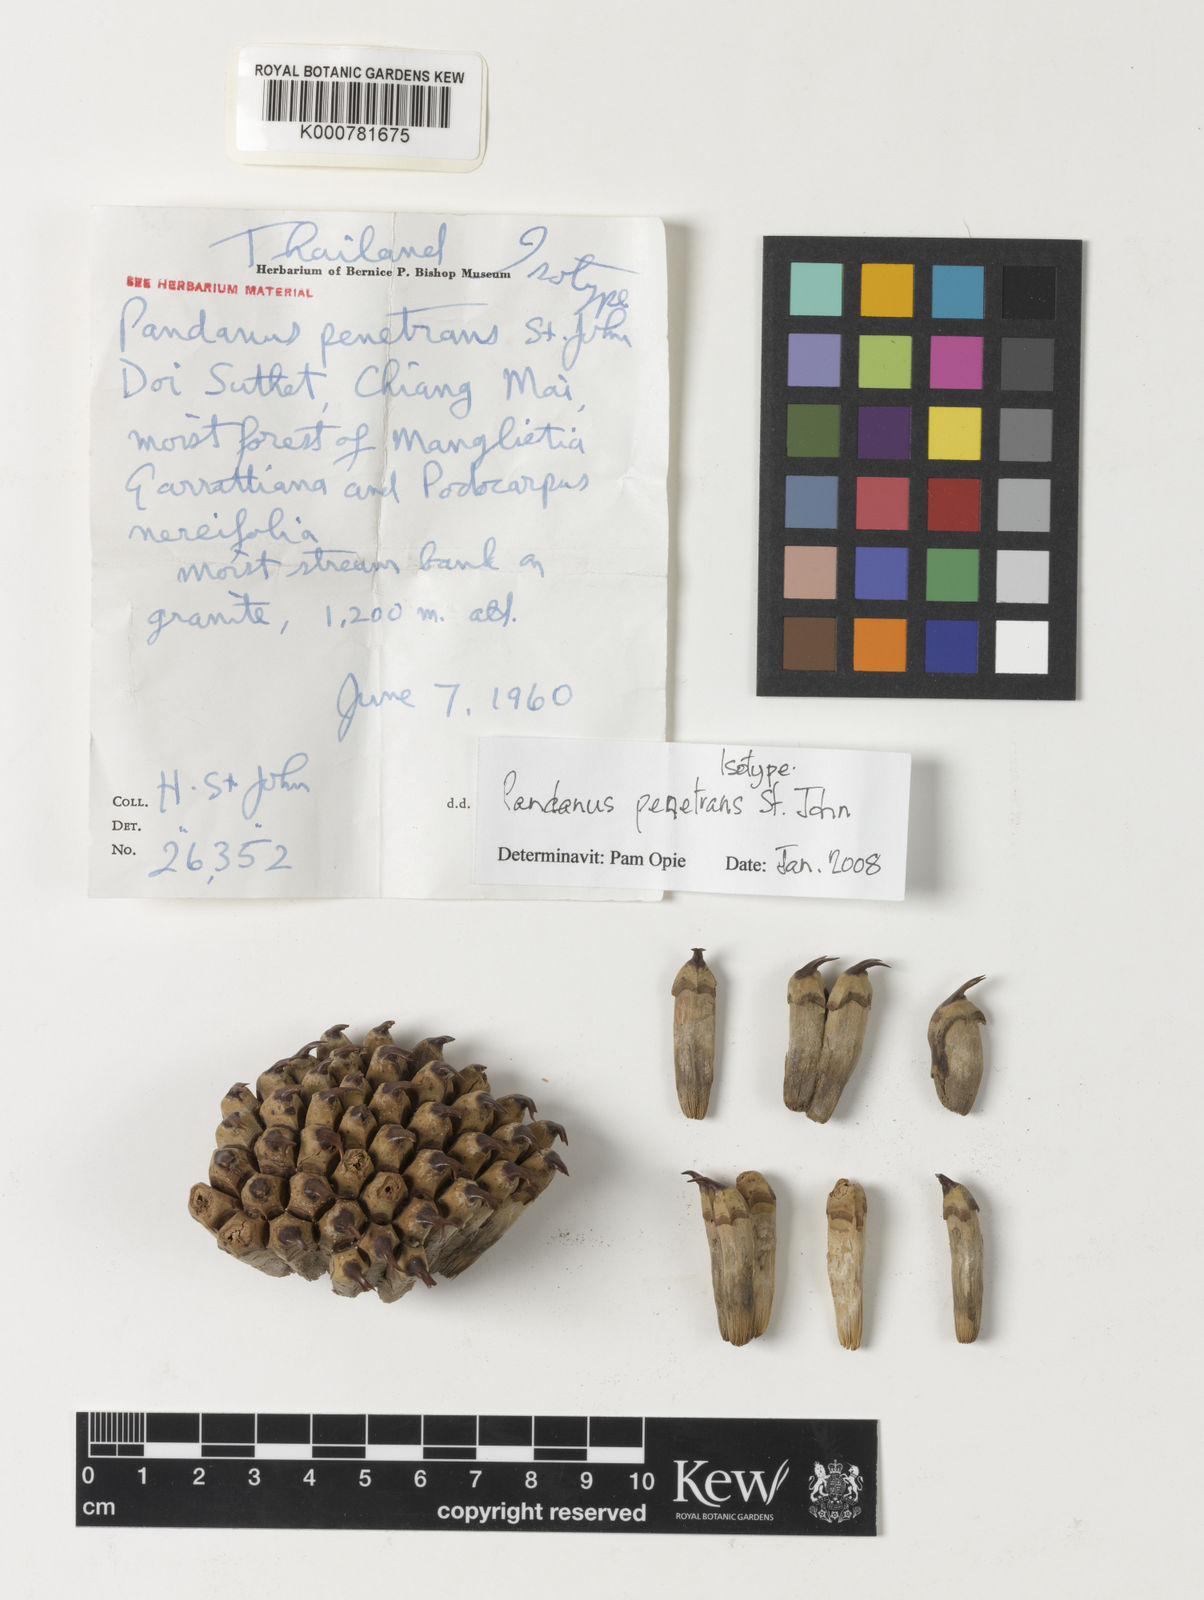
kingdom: Plantae
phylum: Tracheophyta
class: Liliopsida
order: Pandanales
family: Pandanaceae
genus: Pandanus
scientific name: Pandanus penetrans
